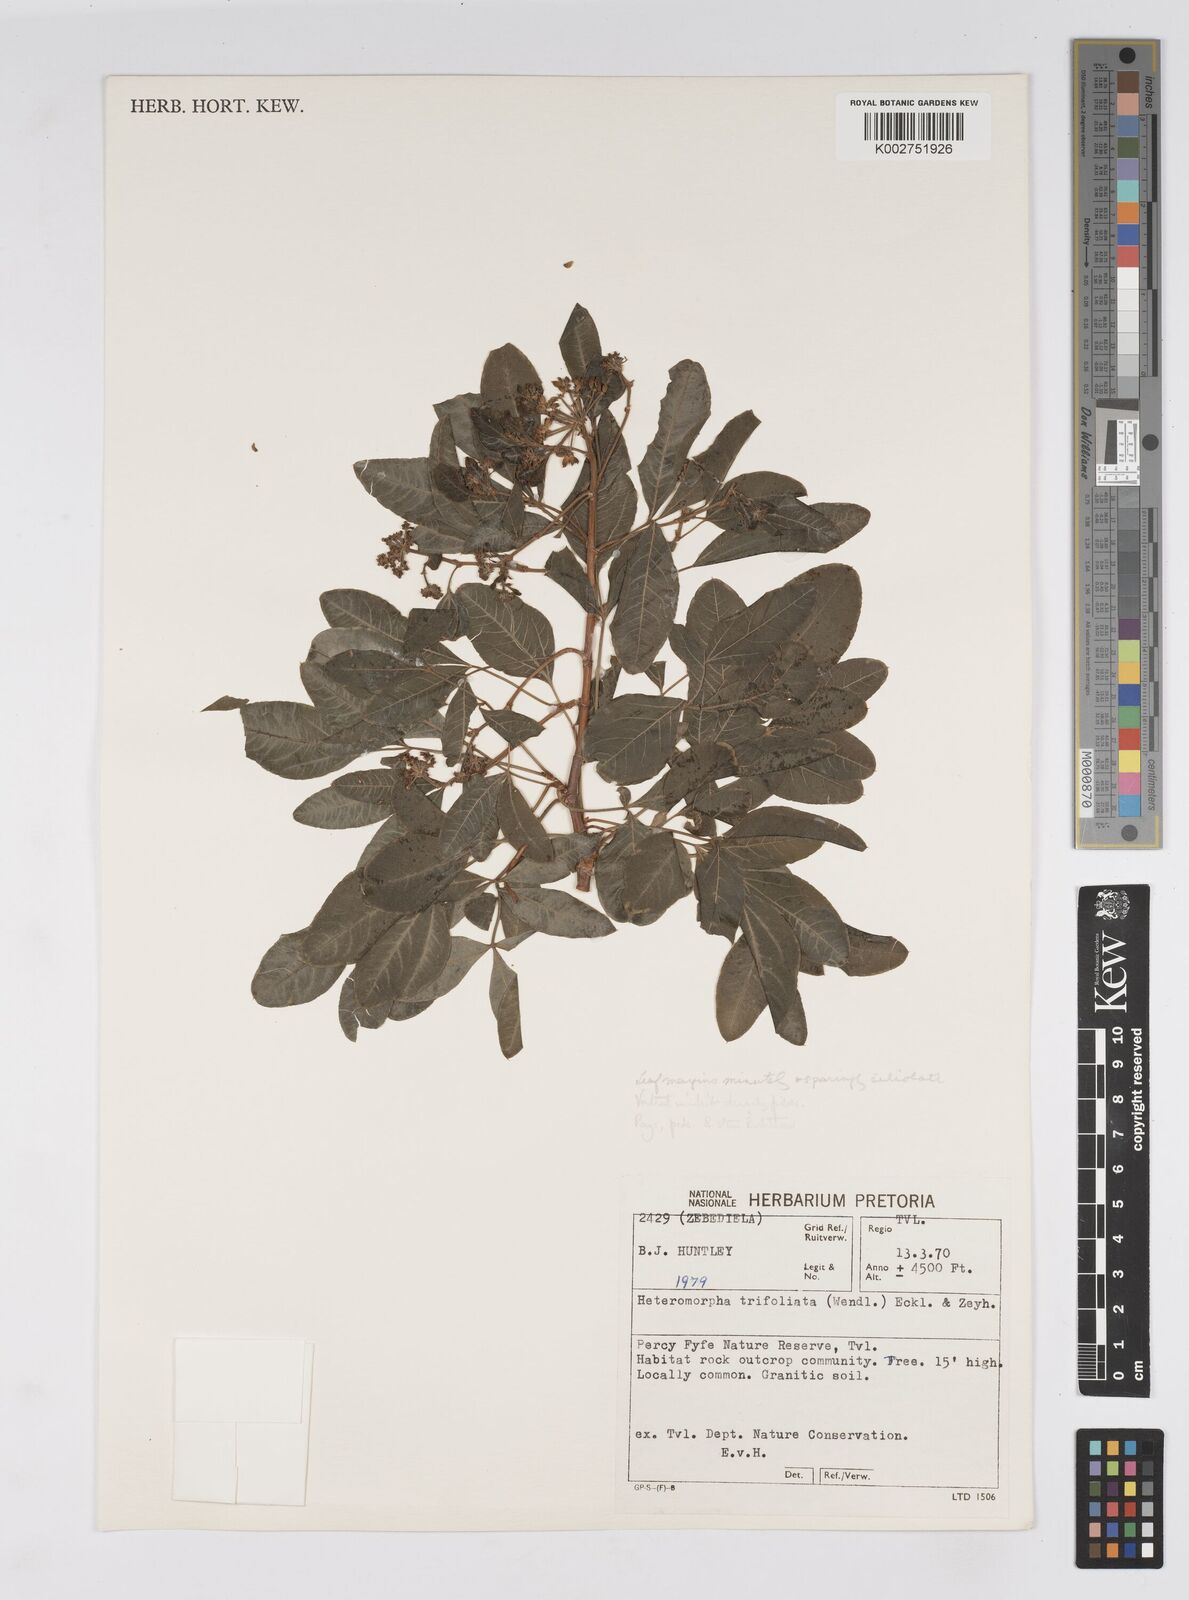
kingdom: Plantae
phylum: Tracheophyta
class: Magnoliopsida
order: Apiales
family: Apiaceae
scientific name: Apiaceae
